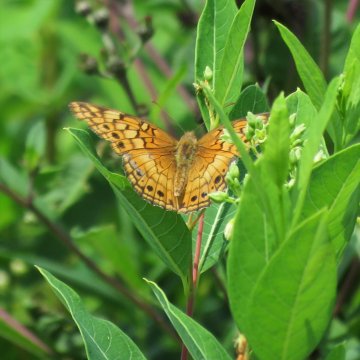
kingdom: Animalia
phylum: Arthropoda
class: Insecta
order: Lepidoptera
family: Nymphalidae
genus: Euptoieta
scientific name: Euptoieta claudia
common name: Variegated Fritillary
